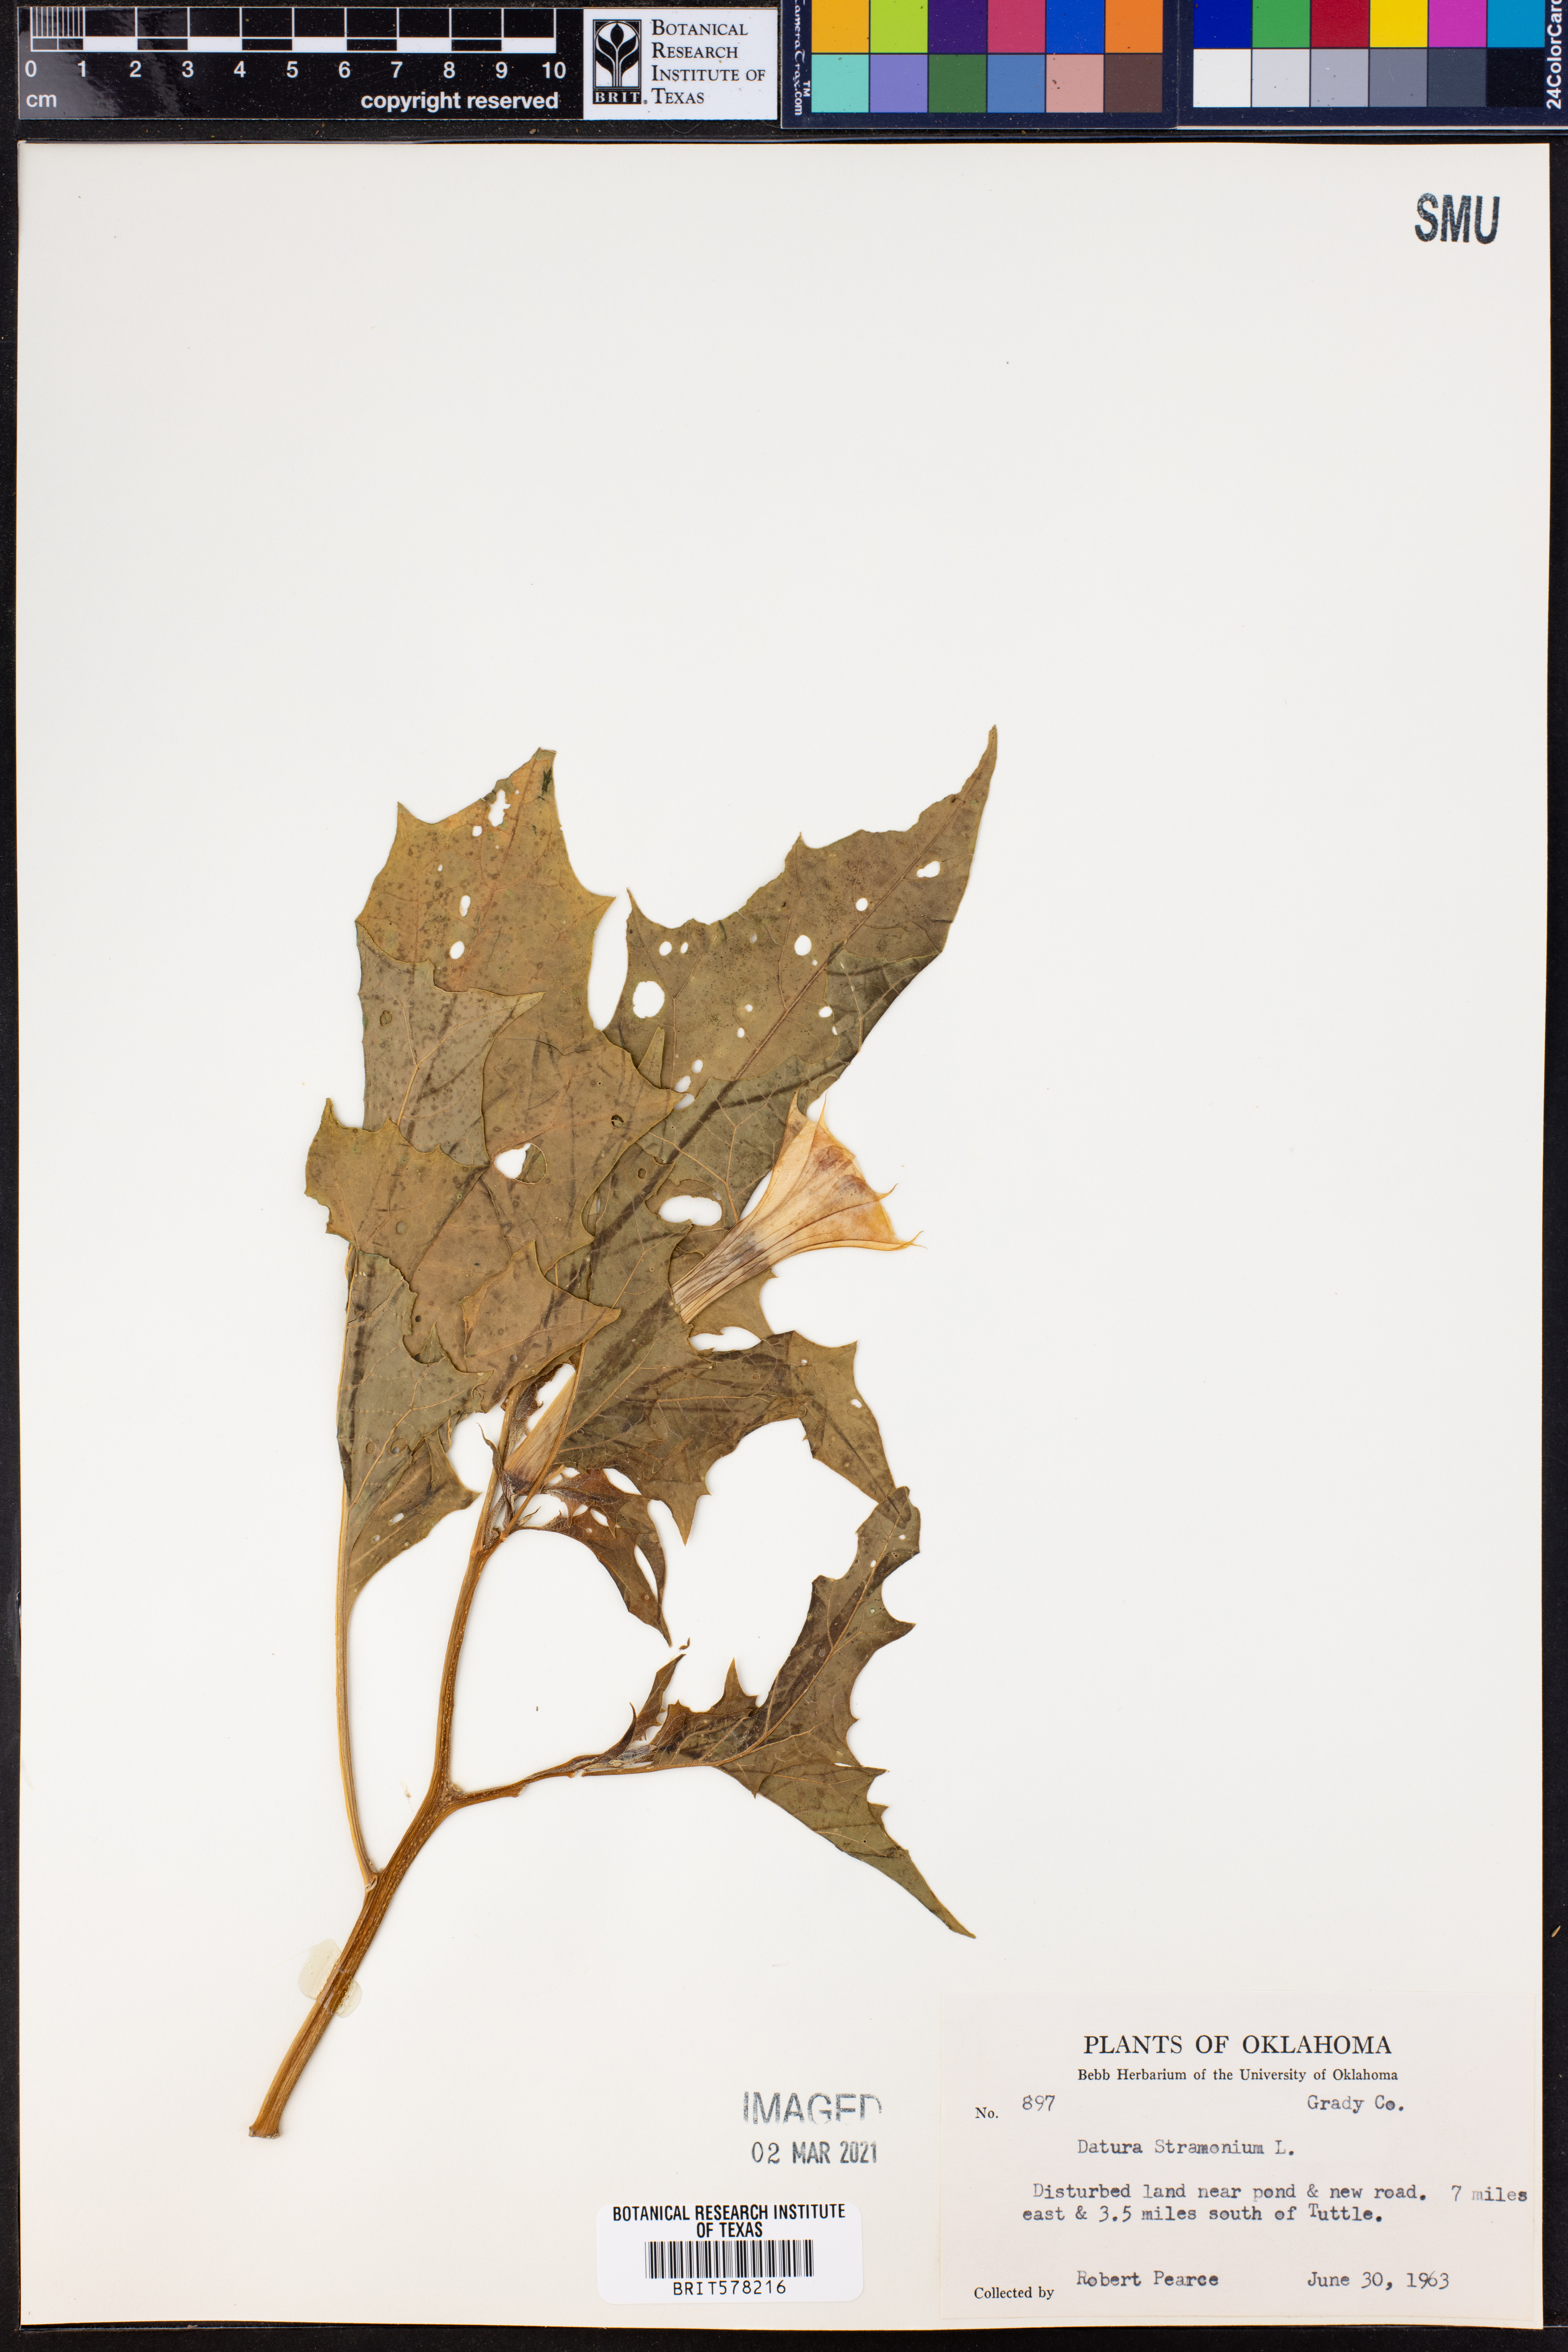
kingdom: Plantae
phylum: Tracheophyta
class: Magnoliopsida
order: Solanales
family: Solanaceae
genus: Datura
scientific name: Datura stramonium
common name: Thorn-apple
